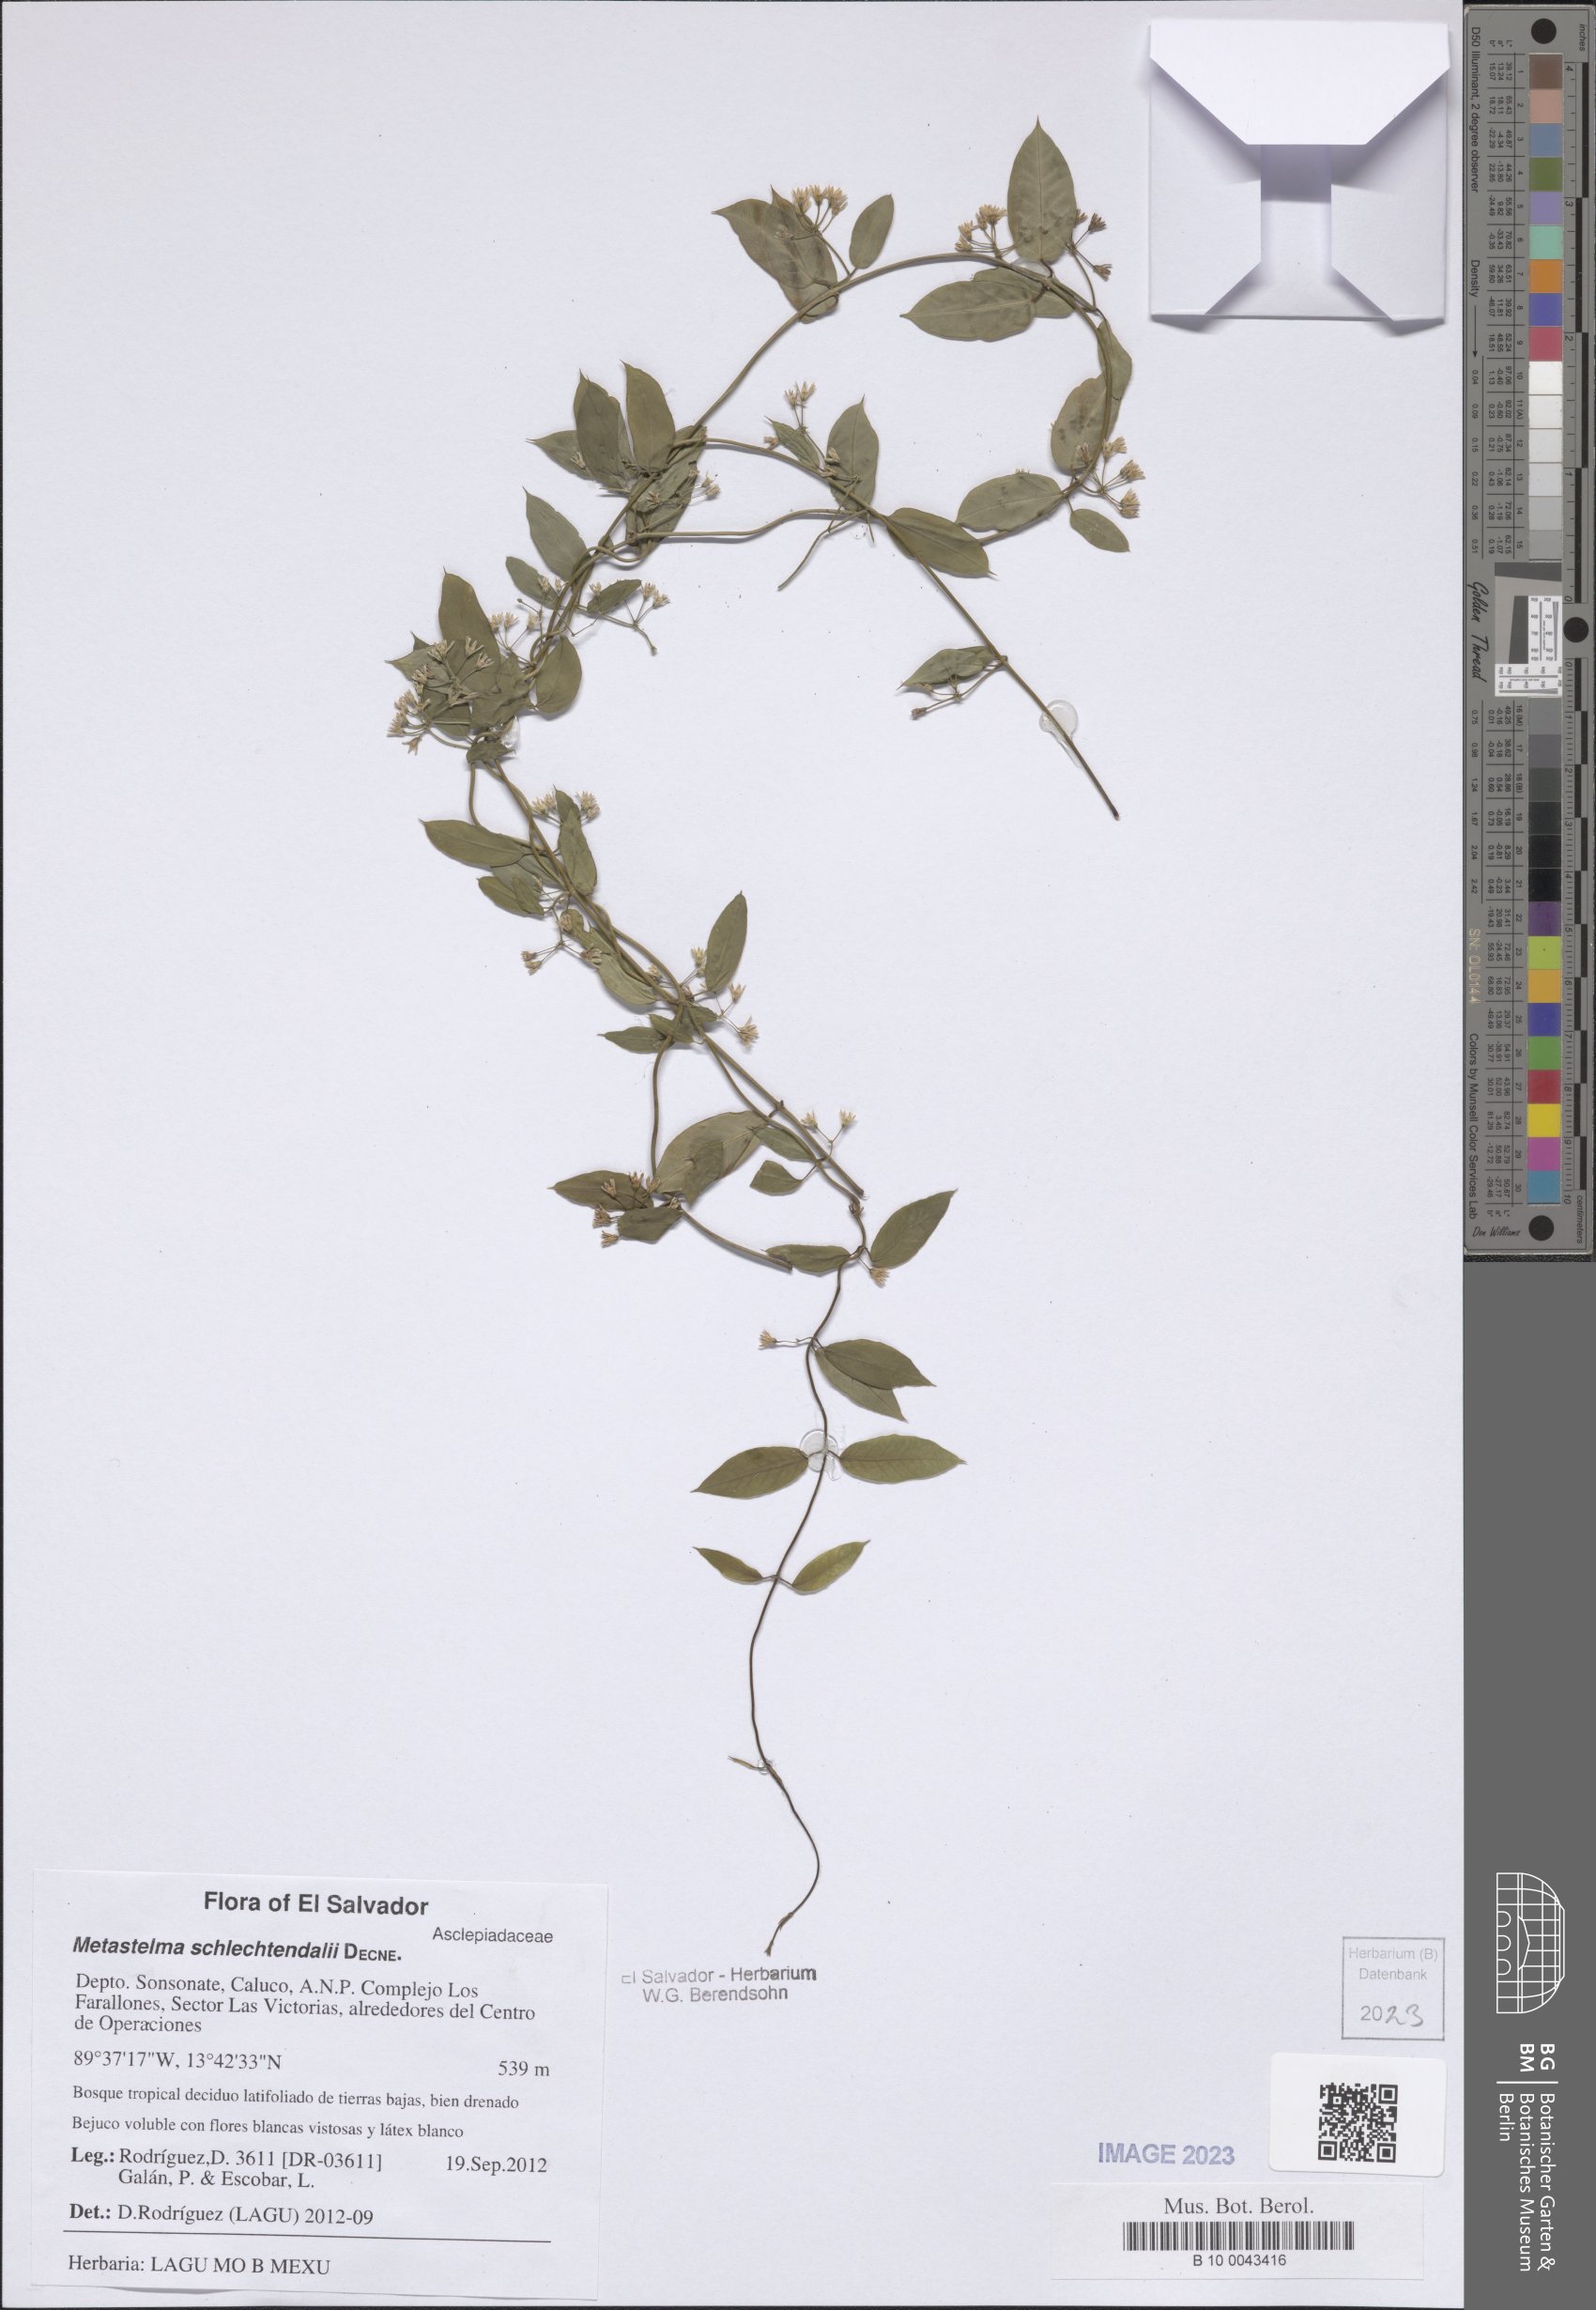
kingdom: Plantae
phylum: Tracheophyta
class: Magnoliopsida
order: Gentianales
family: Apocynaceae
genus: Metastelma
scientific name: Metastelma schlechtendalii
